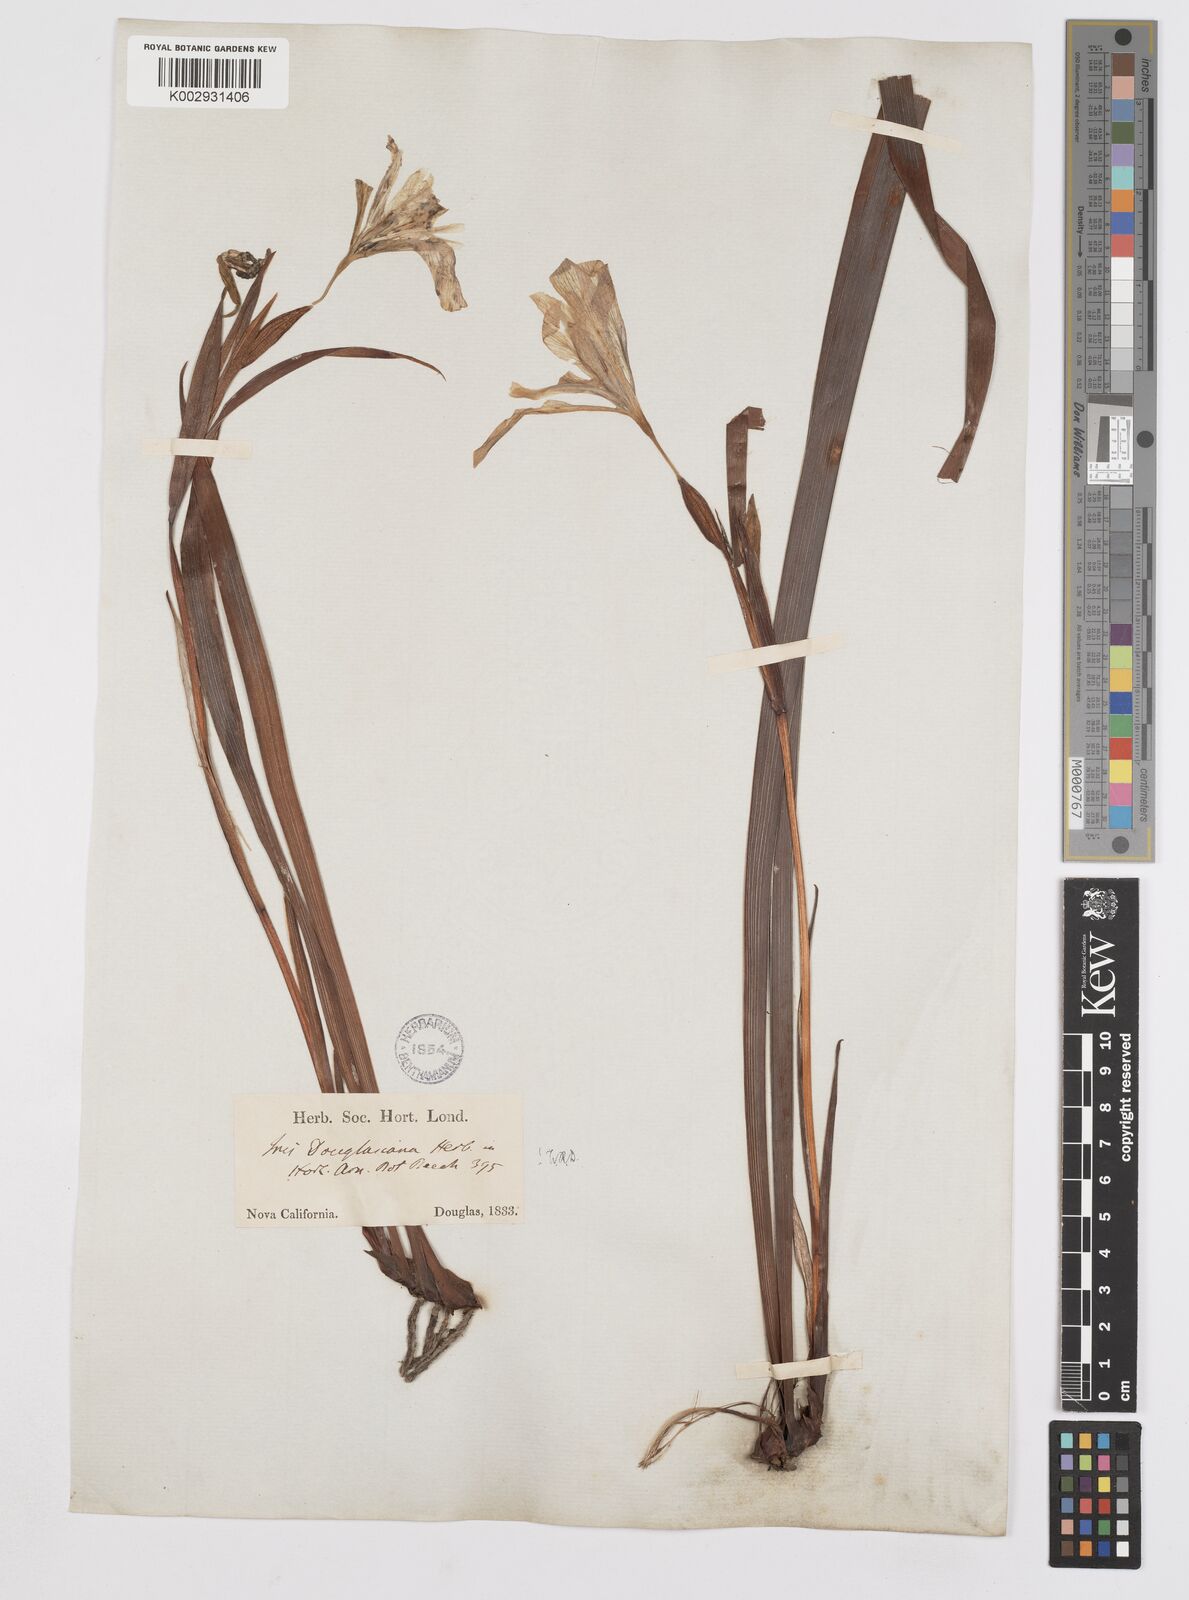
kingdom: Plantae
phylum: Tracheophyta
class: Liliopsida
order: Asparagales
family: Iridaceae
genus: Iris
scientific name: Iris douglasiana
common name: Marin iris
